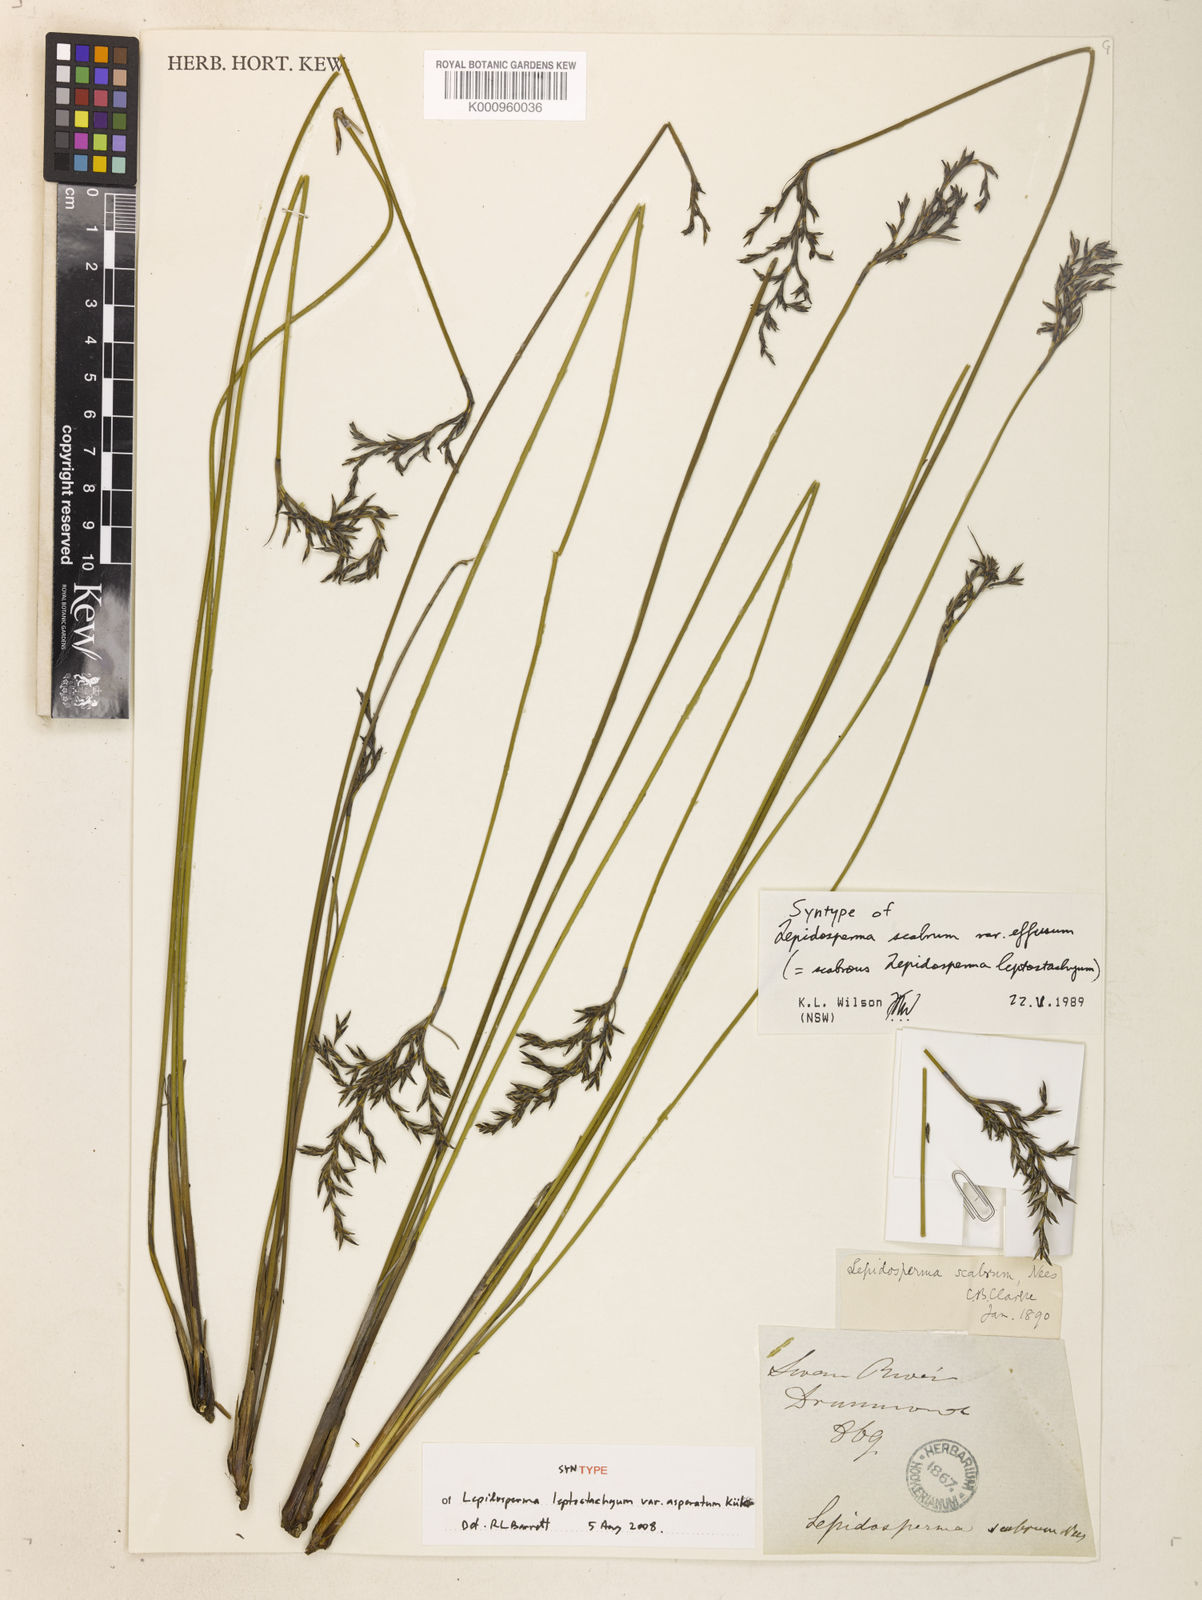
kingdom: Plantae
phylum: Tracheophyta
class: Liliopsida
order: Poales
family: Cyperaceae
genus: Lepidosperma
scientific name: Lepidosperma leptostachyum
